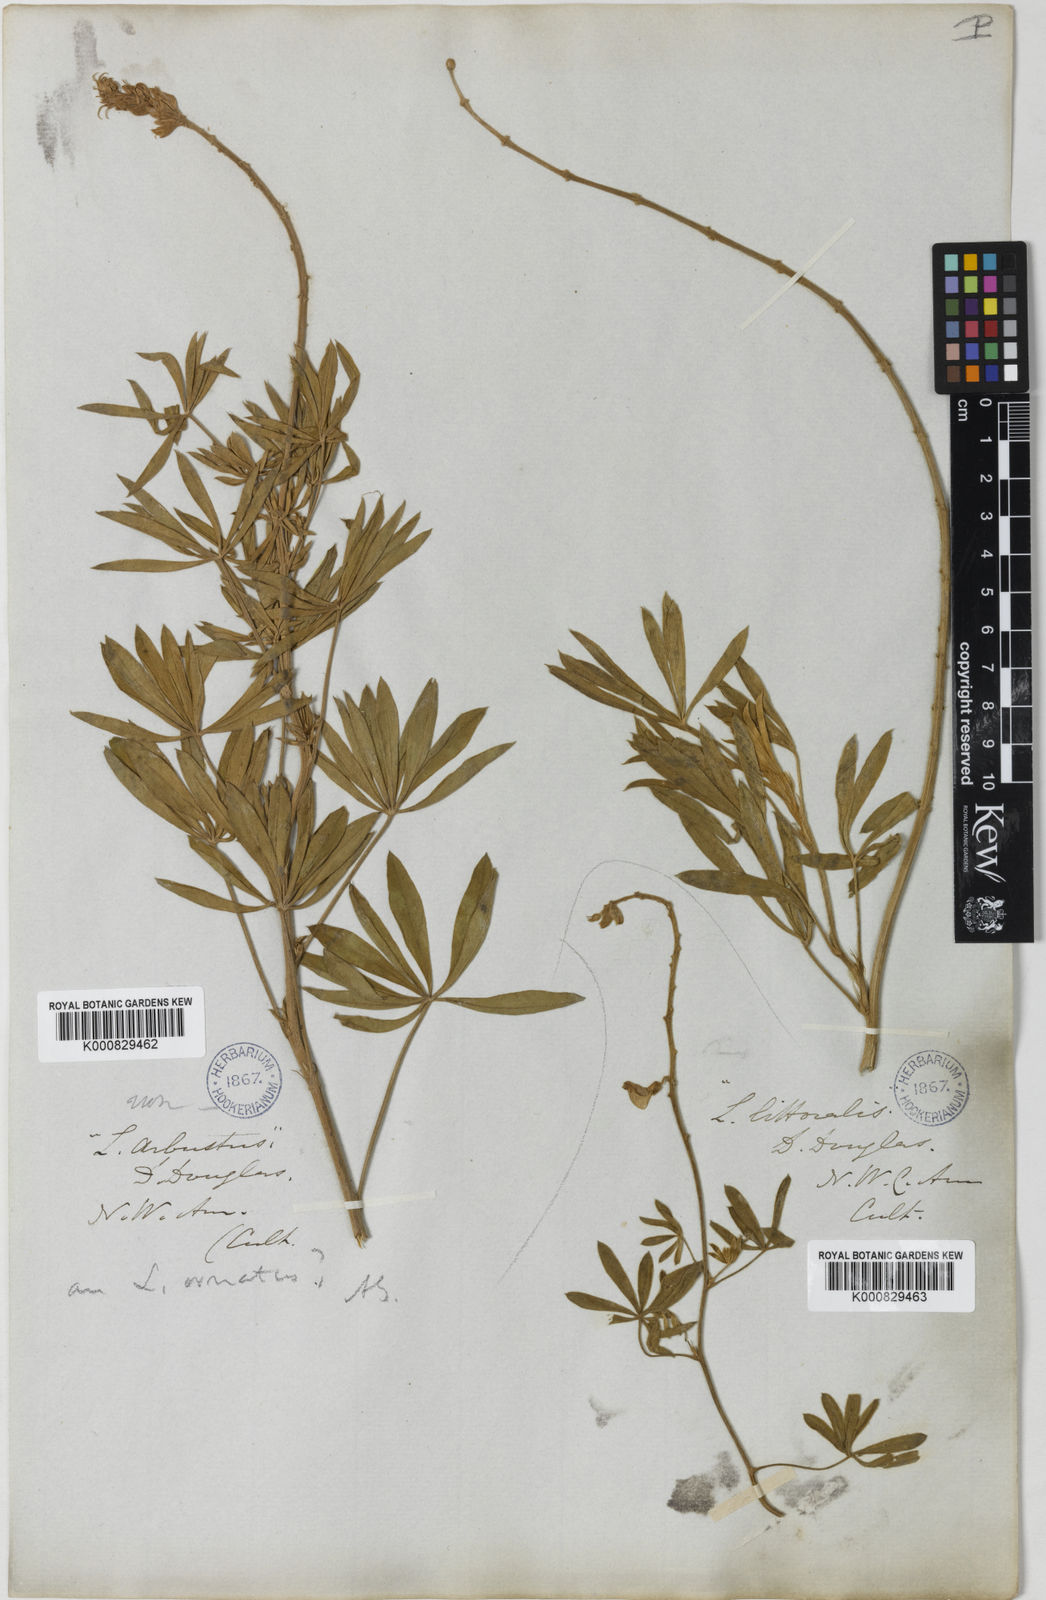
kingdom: Plantae
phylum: Tracheophyta
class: Magnoliopsida
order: Fabales
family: Fabaceae
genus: Lupinus
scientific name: Lupinus arbustus
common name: Montana lupine
